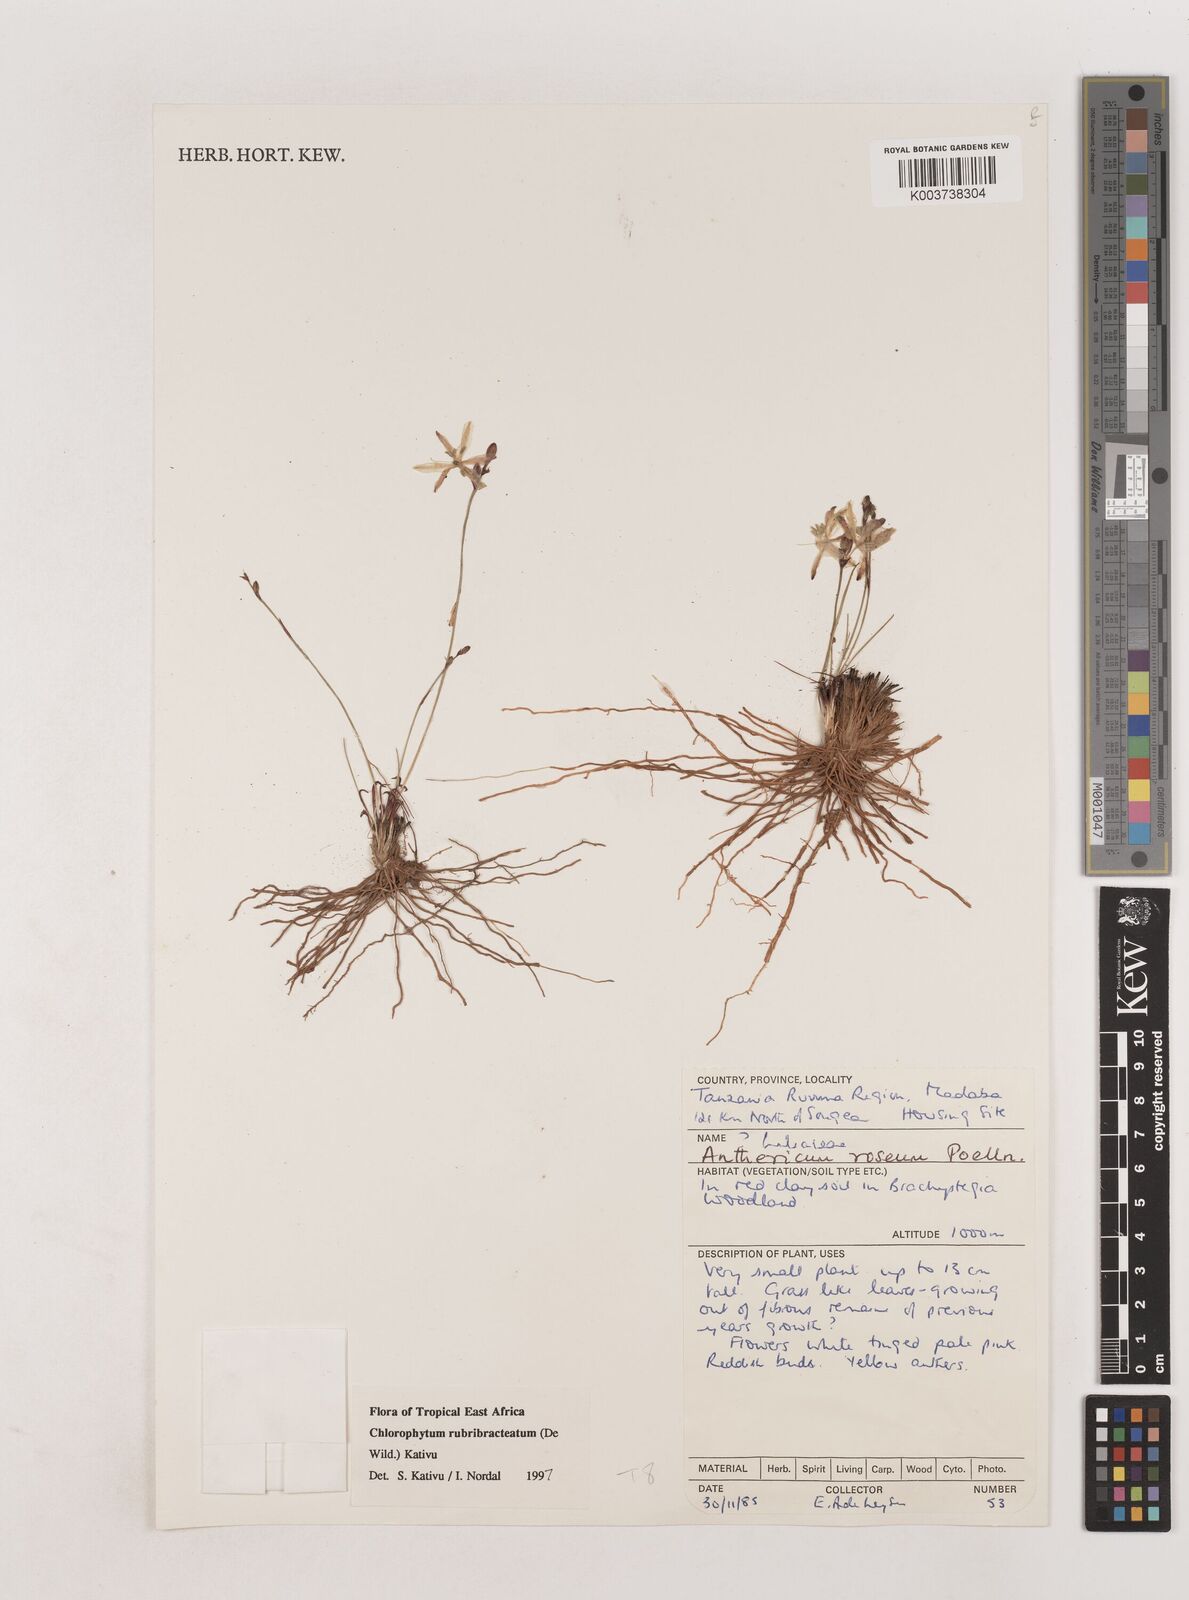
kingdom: Plantae
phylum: Tracheophyta
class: Liliopsida
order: Asparagales
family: Asparagaceae
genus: Chlorophytum
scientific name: Chlorophytum rubribracteatum
